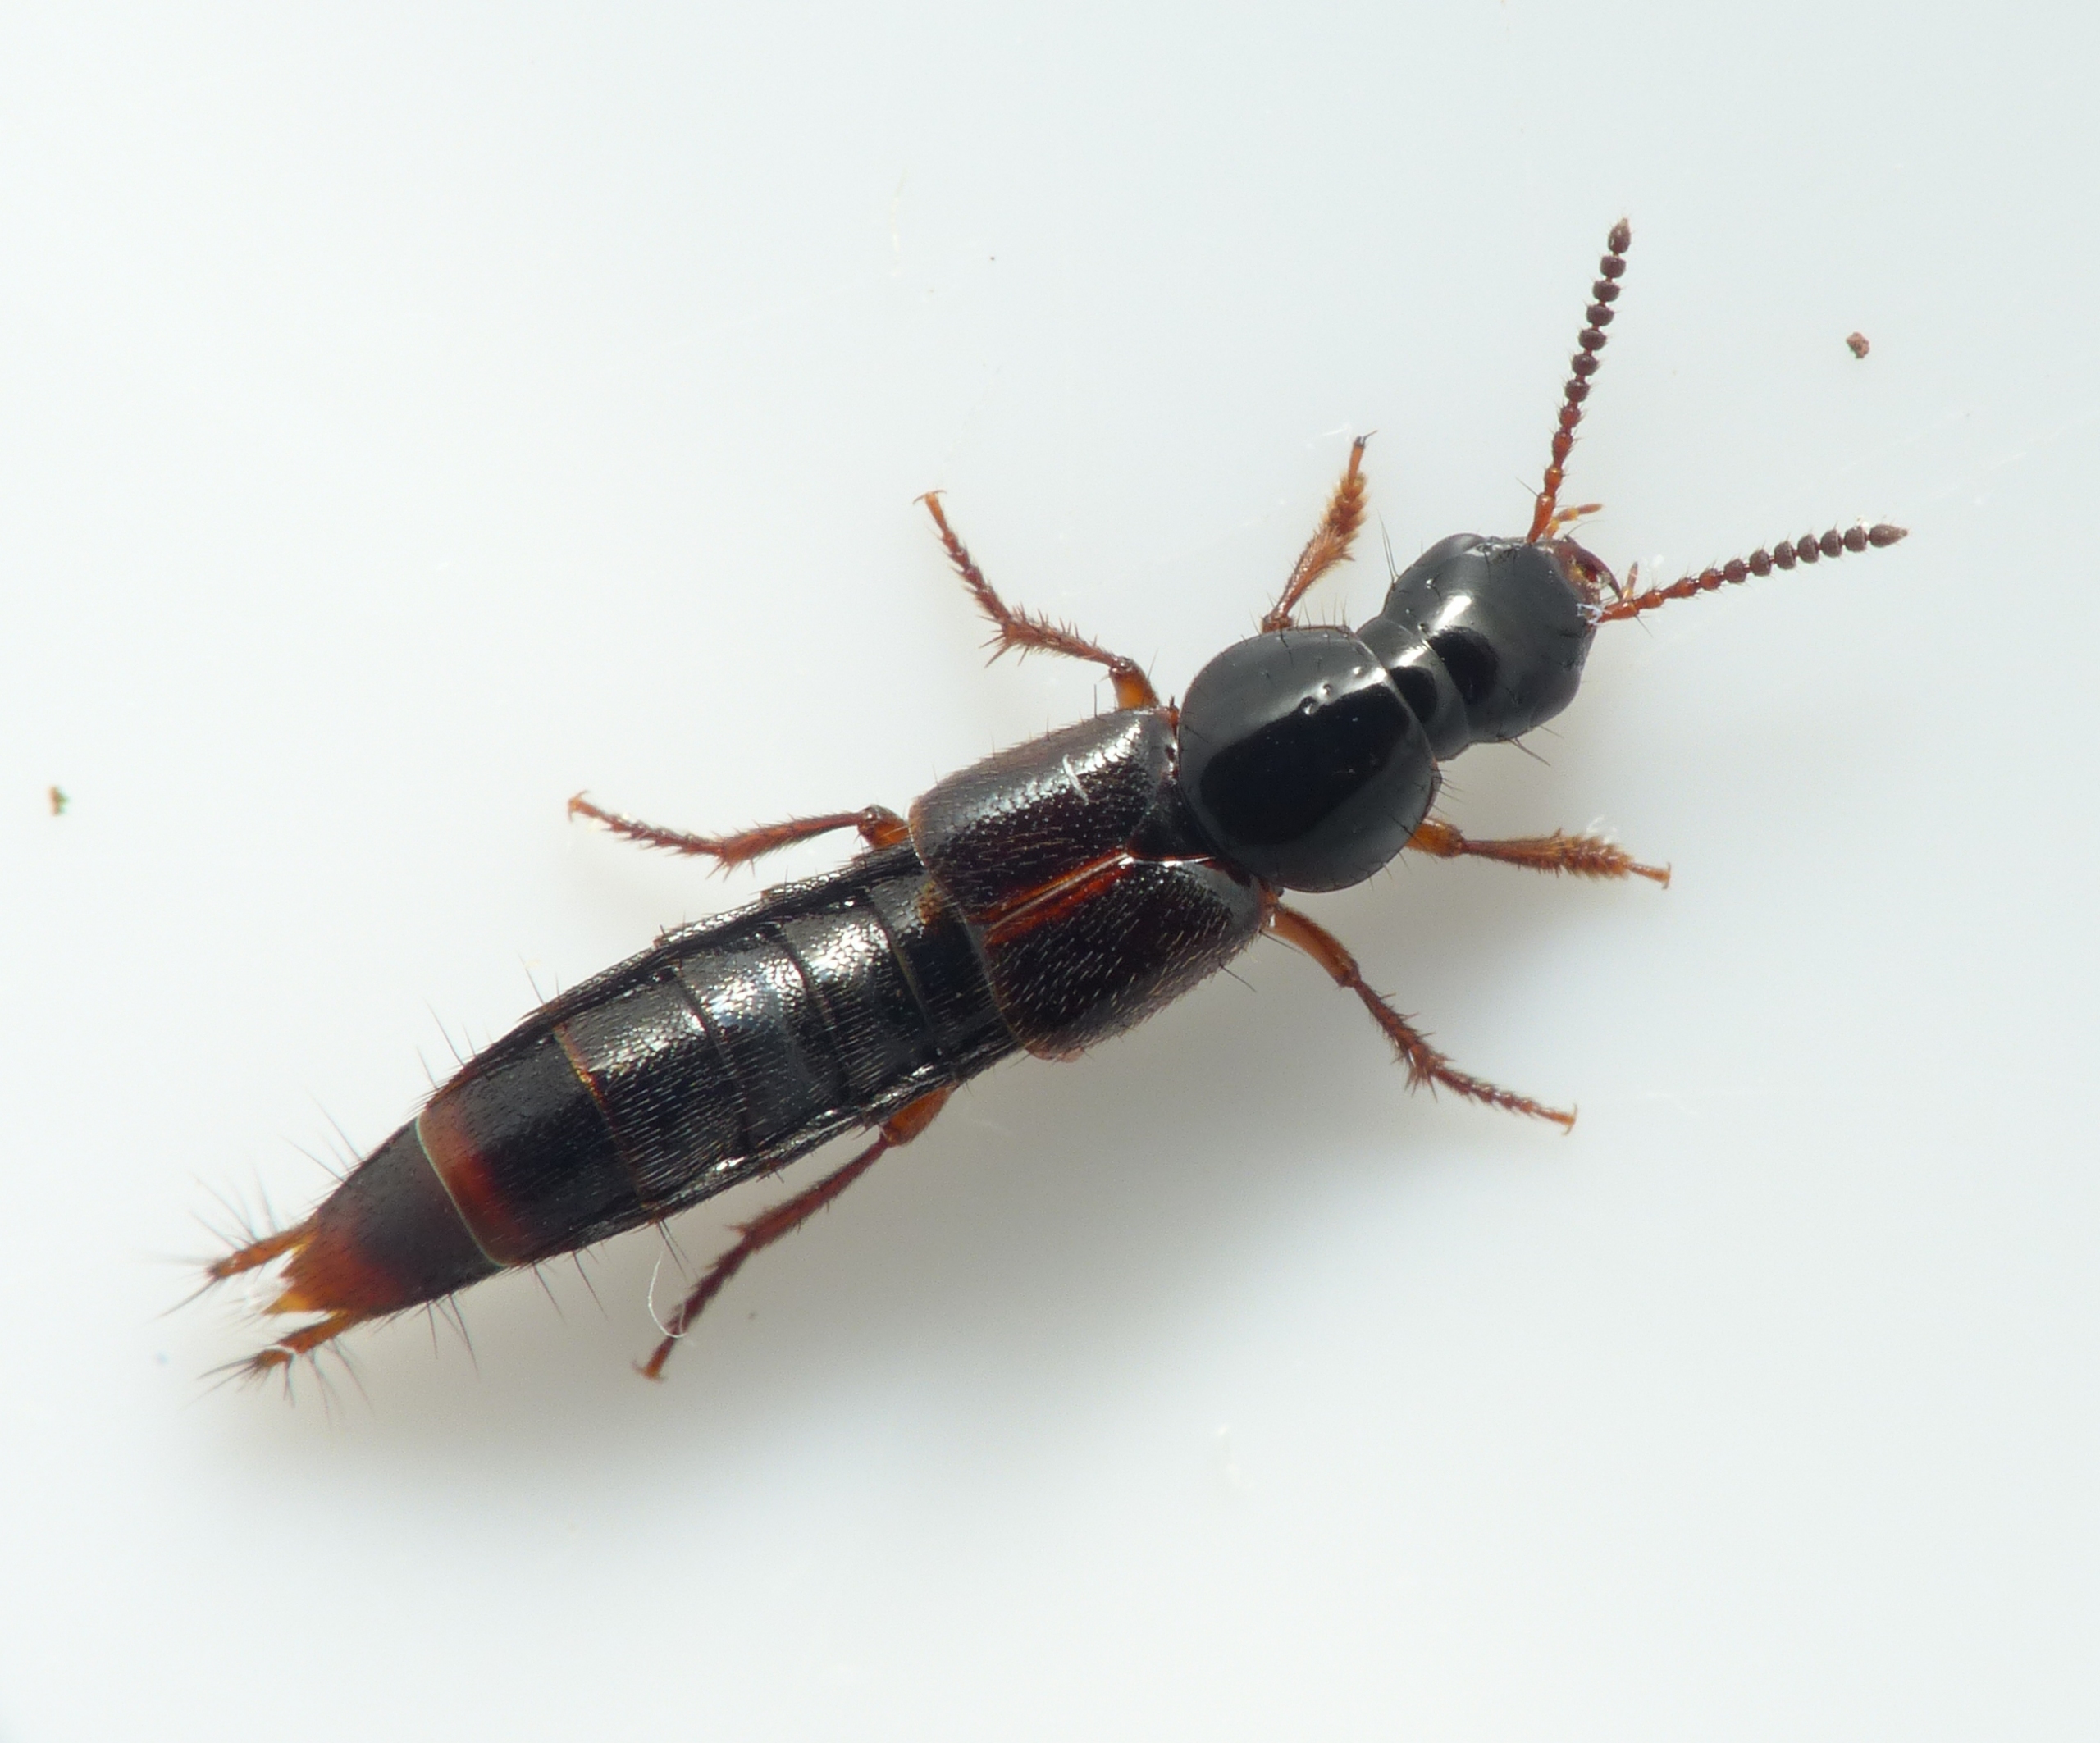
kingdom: Animalia
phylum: Arthropoda
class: Insecta
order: Coleoptera
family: Staphylinidae
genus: Quedius
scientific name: Quedius cruentus
